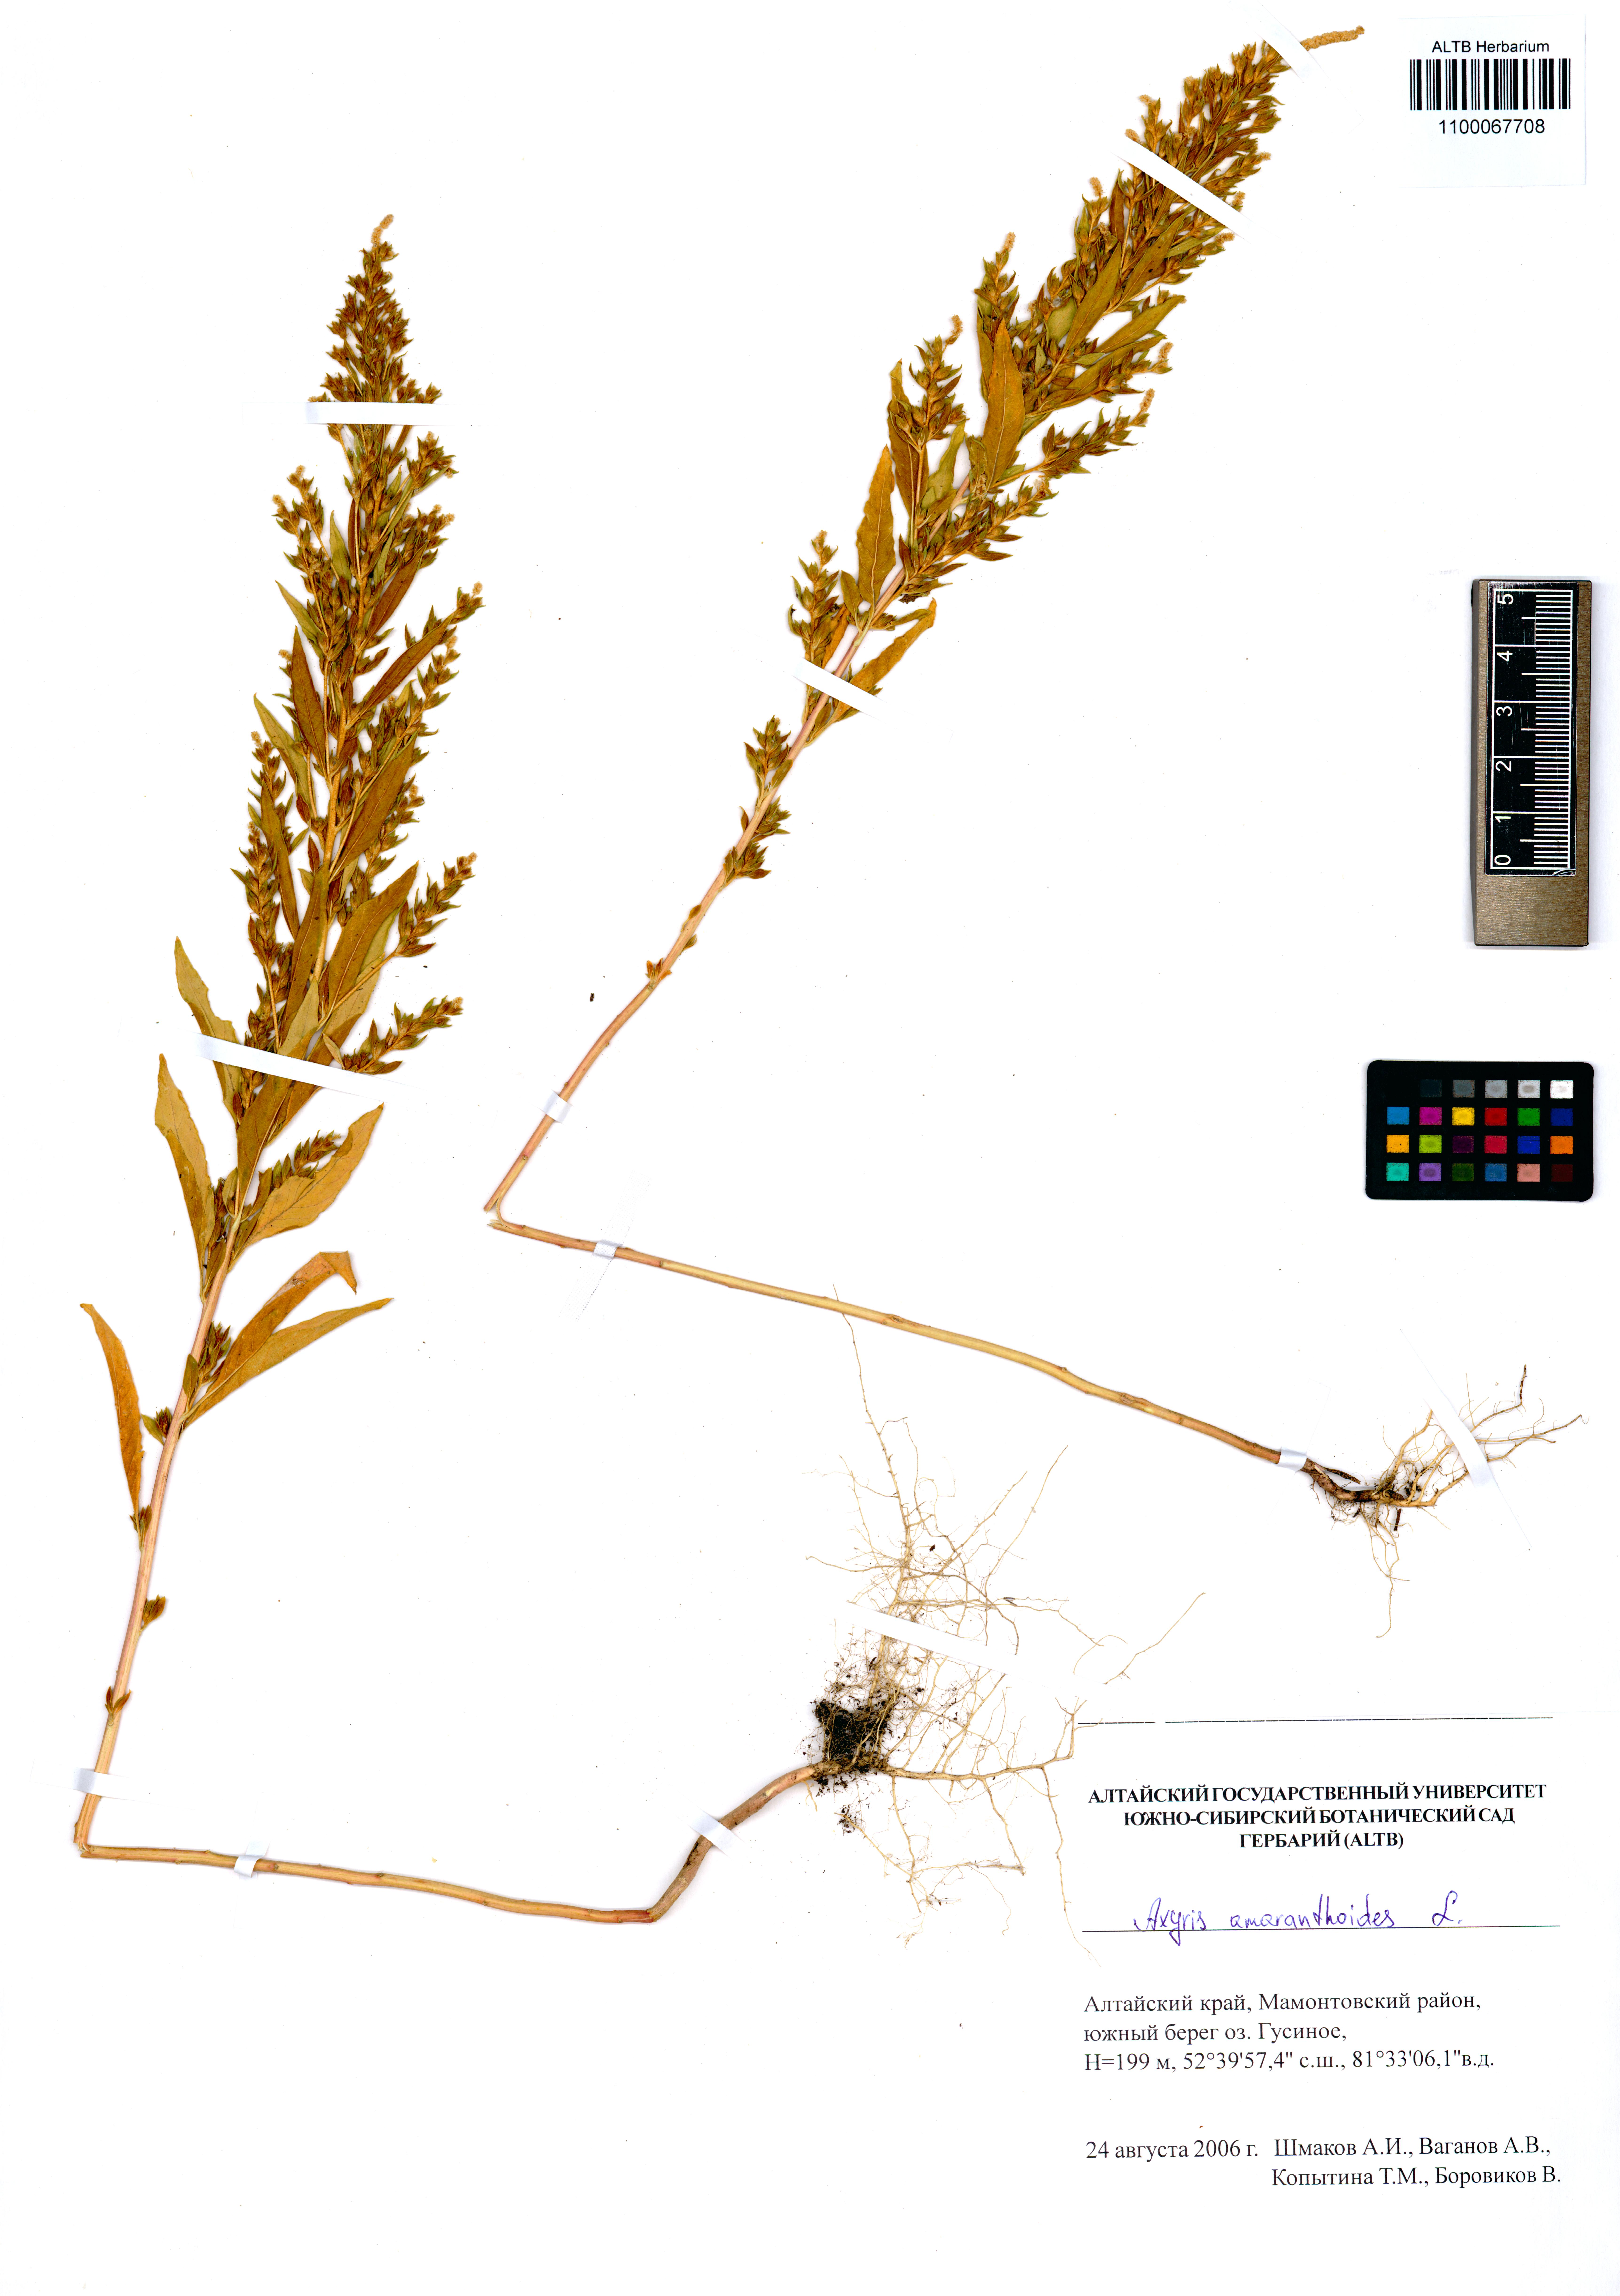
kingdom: Plantae
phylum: Tracheophyta
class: Magnoliopsida
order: Caryophyllales
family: Amaranthaceae
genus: Axyris
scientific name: Axyris amaranthoides
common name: Russian pigweed
